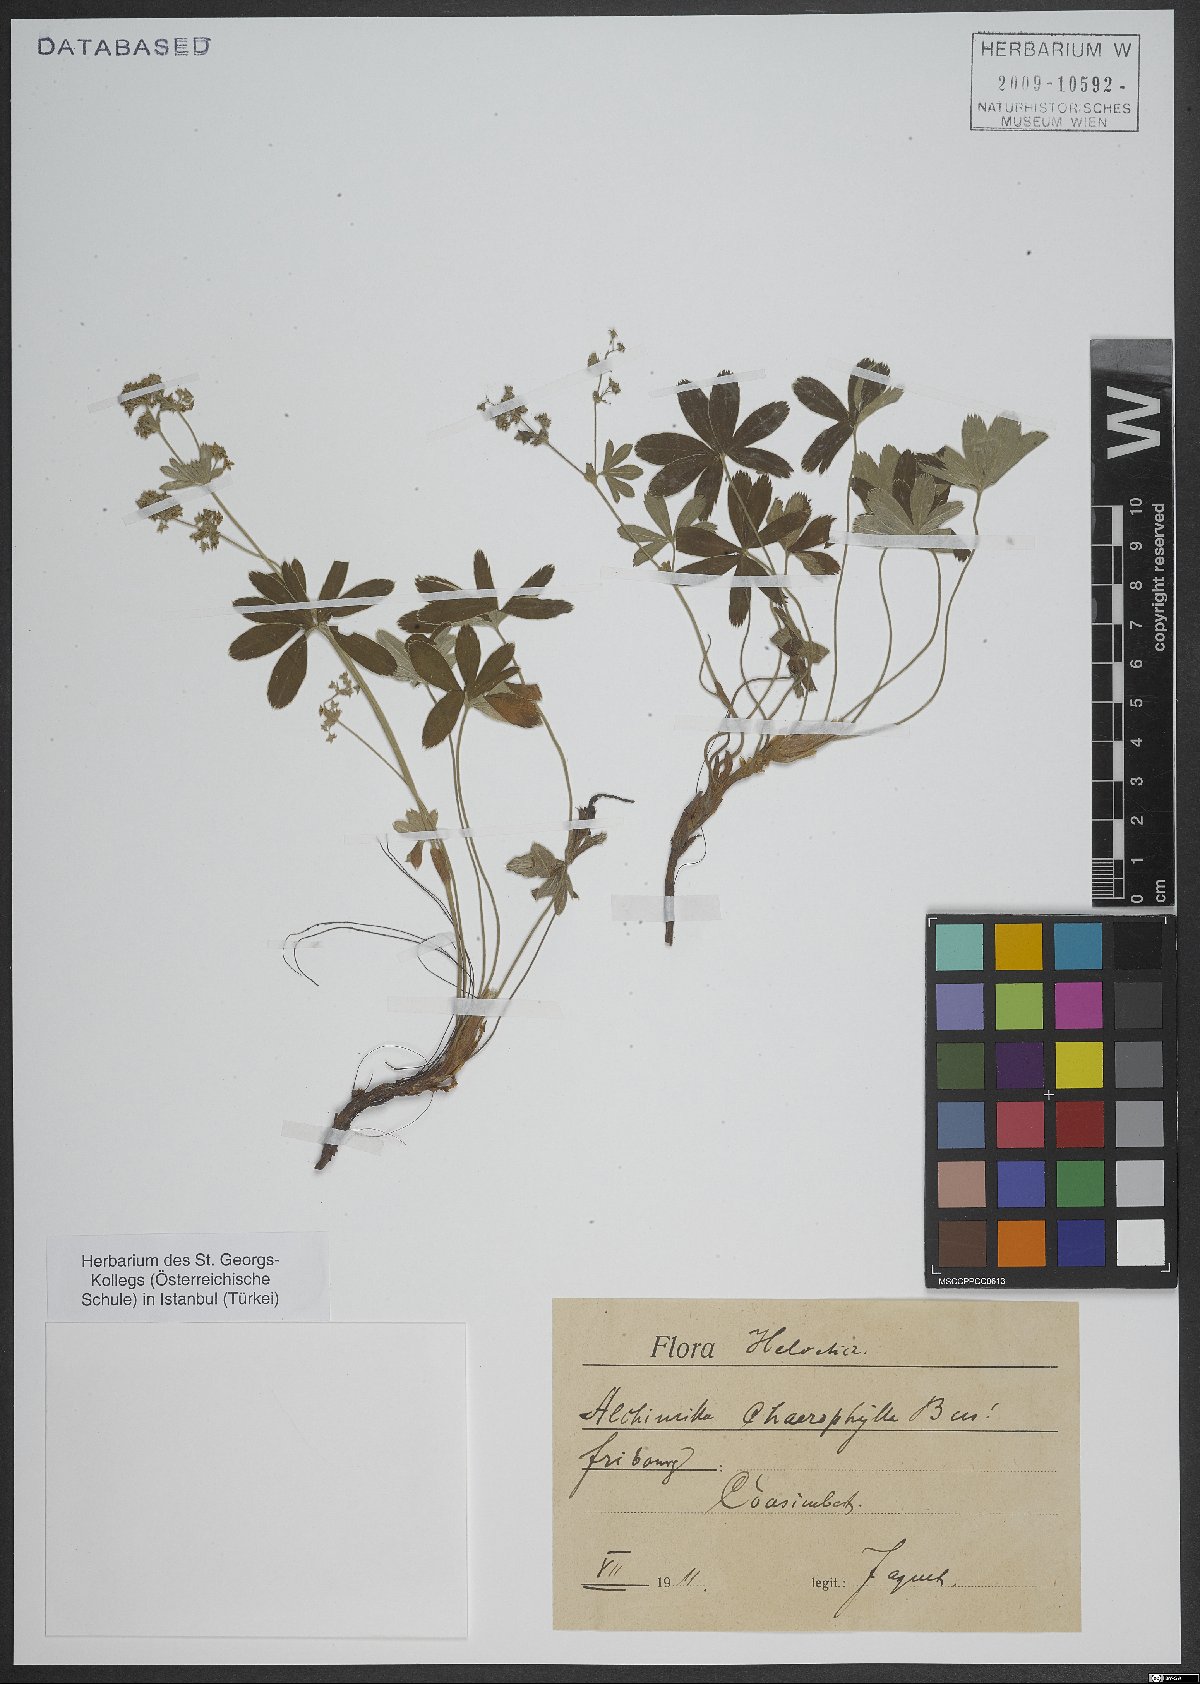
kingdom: Plantae
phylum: Tracheophyta
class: Magnoliopsida
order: Caryophyllales
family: Caryophyllaceae
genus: Moehringia
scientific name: Moehringia
